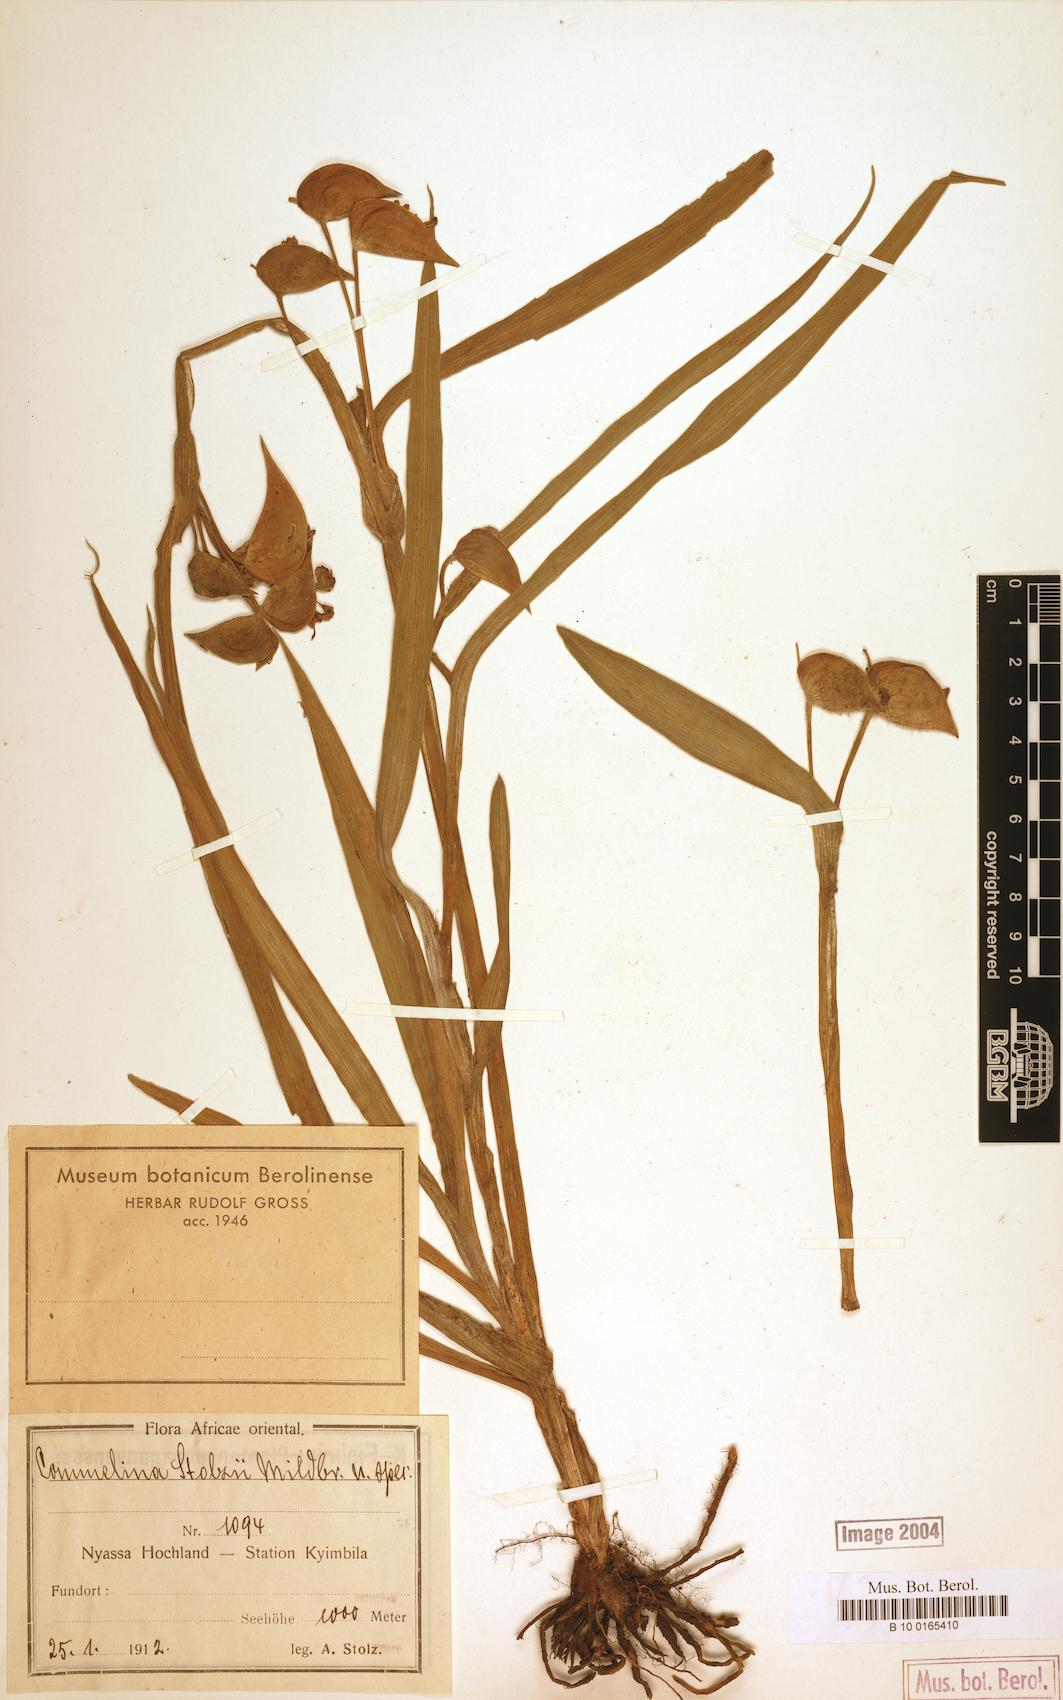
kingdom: Plantae
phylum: Tracheophyta
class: Liliopsida
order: Commelinales
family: Commelinaceae
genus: Commelina
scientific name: Commelina schweinfurthii
